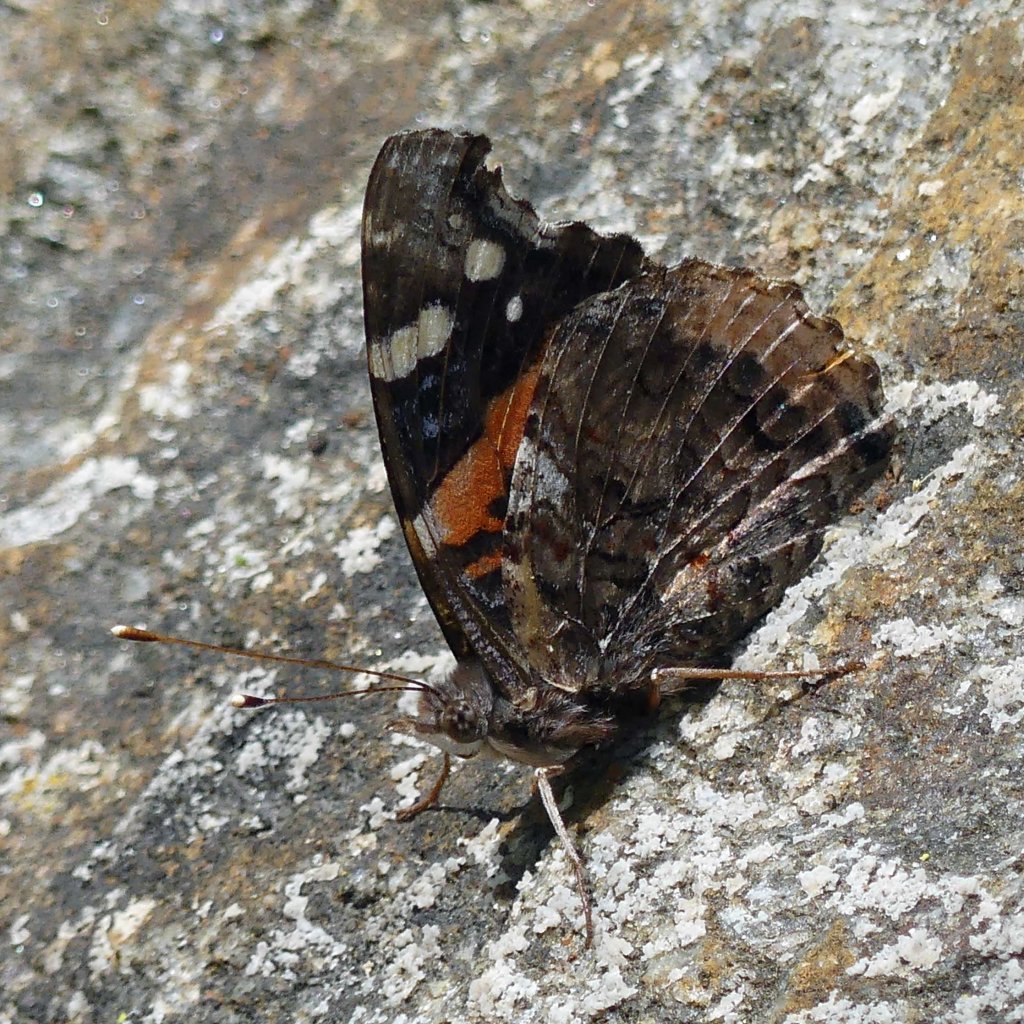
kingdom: Animalia
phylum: Arthropoda
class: Insecta
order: Lepidoptera
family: Nymphalidae
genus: Vanessa
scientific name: Vanessa atalanta
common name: Red Admiral
